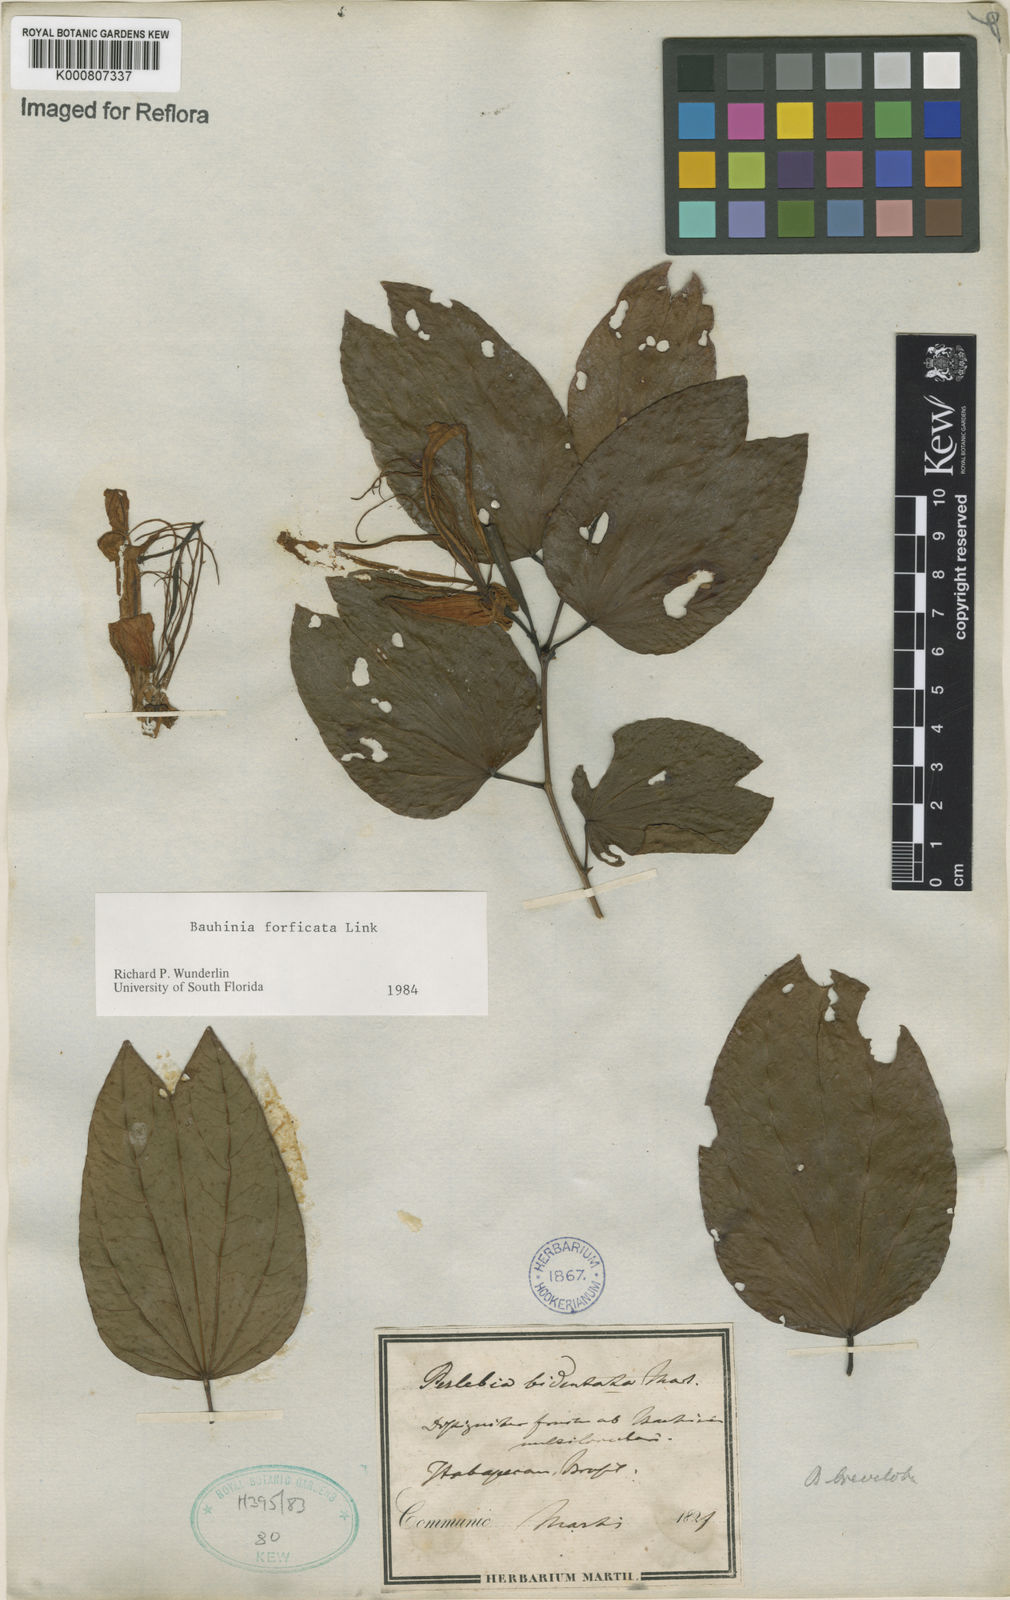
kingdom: Plantae
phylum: Tracheophyta
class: Magnoliopsida
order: Fabales
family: Fabaceae
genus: Bauhinia
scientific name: Bauhinia forficata
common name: Orchid tree
